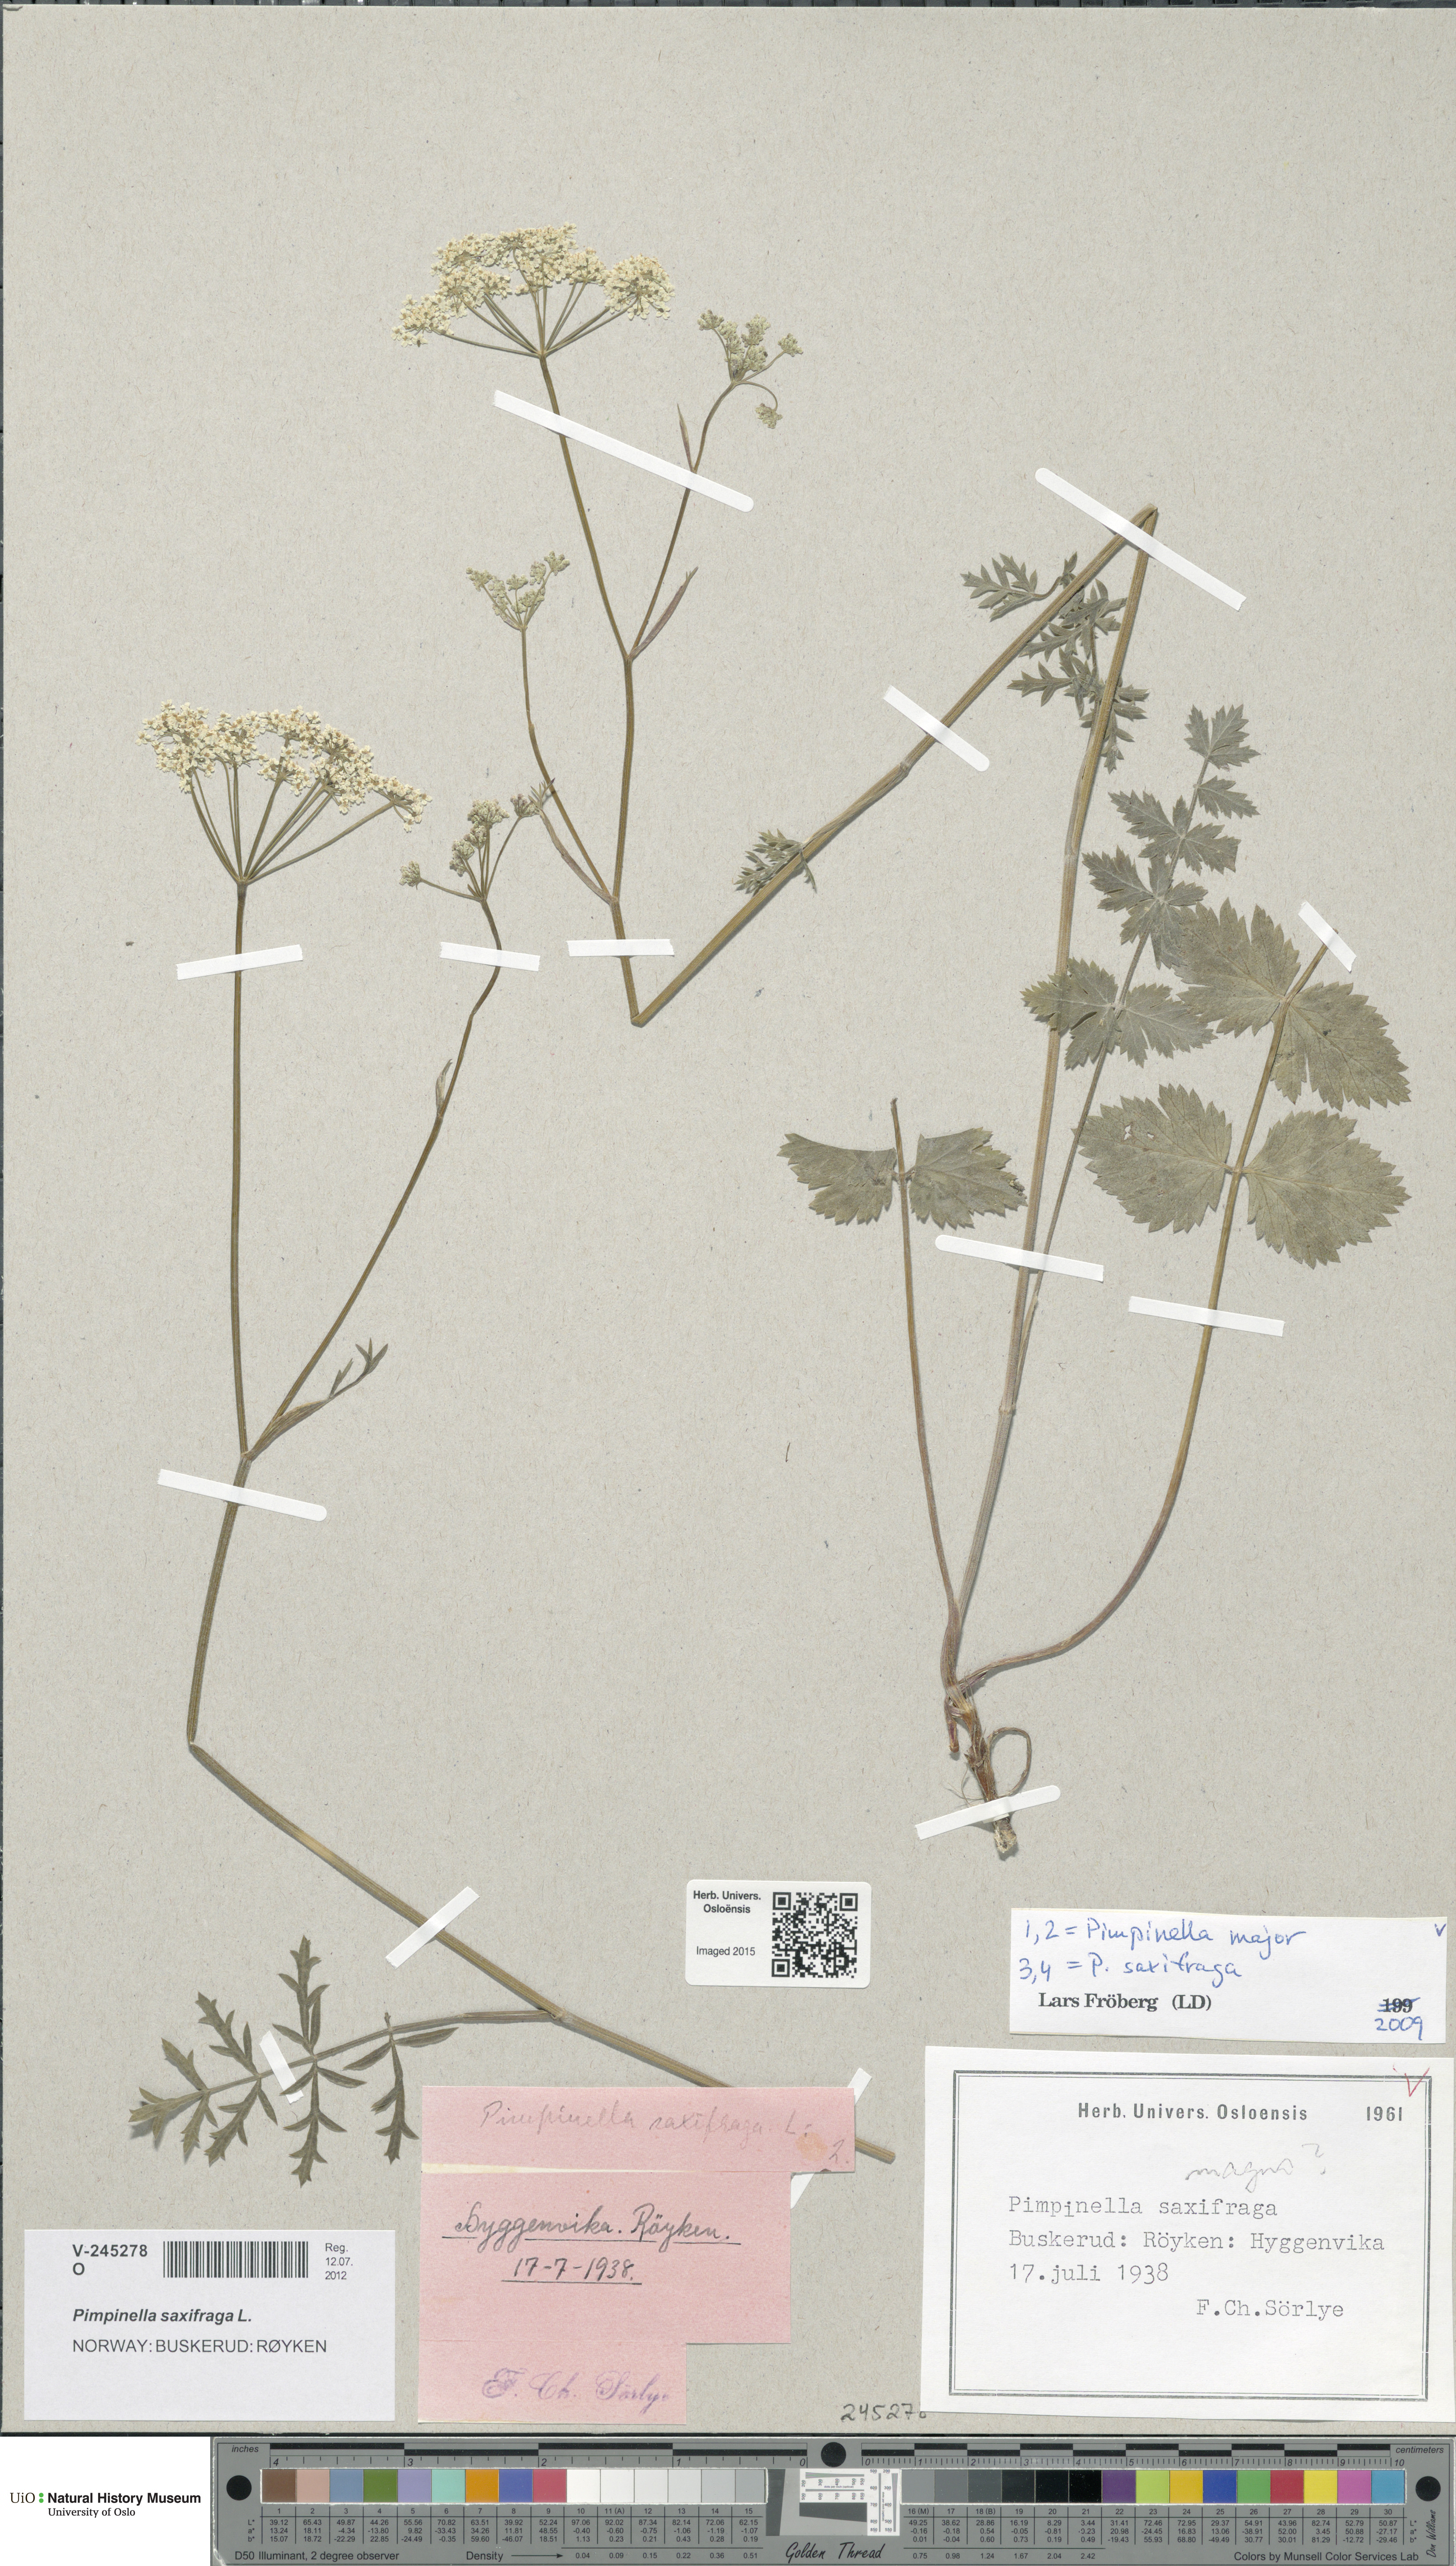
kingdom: Plantae
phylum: Tracheophyta
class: Magnoliopsida
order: Apiales
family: Apiaceae
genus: Pimpinella
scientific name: Pimpinella saxifraga
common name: Burnet-saxifrage
